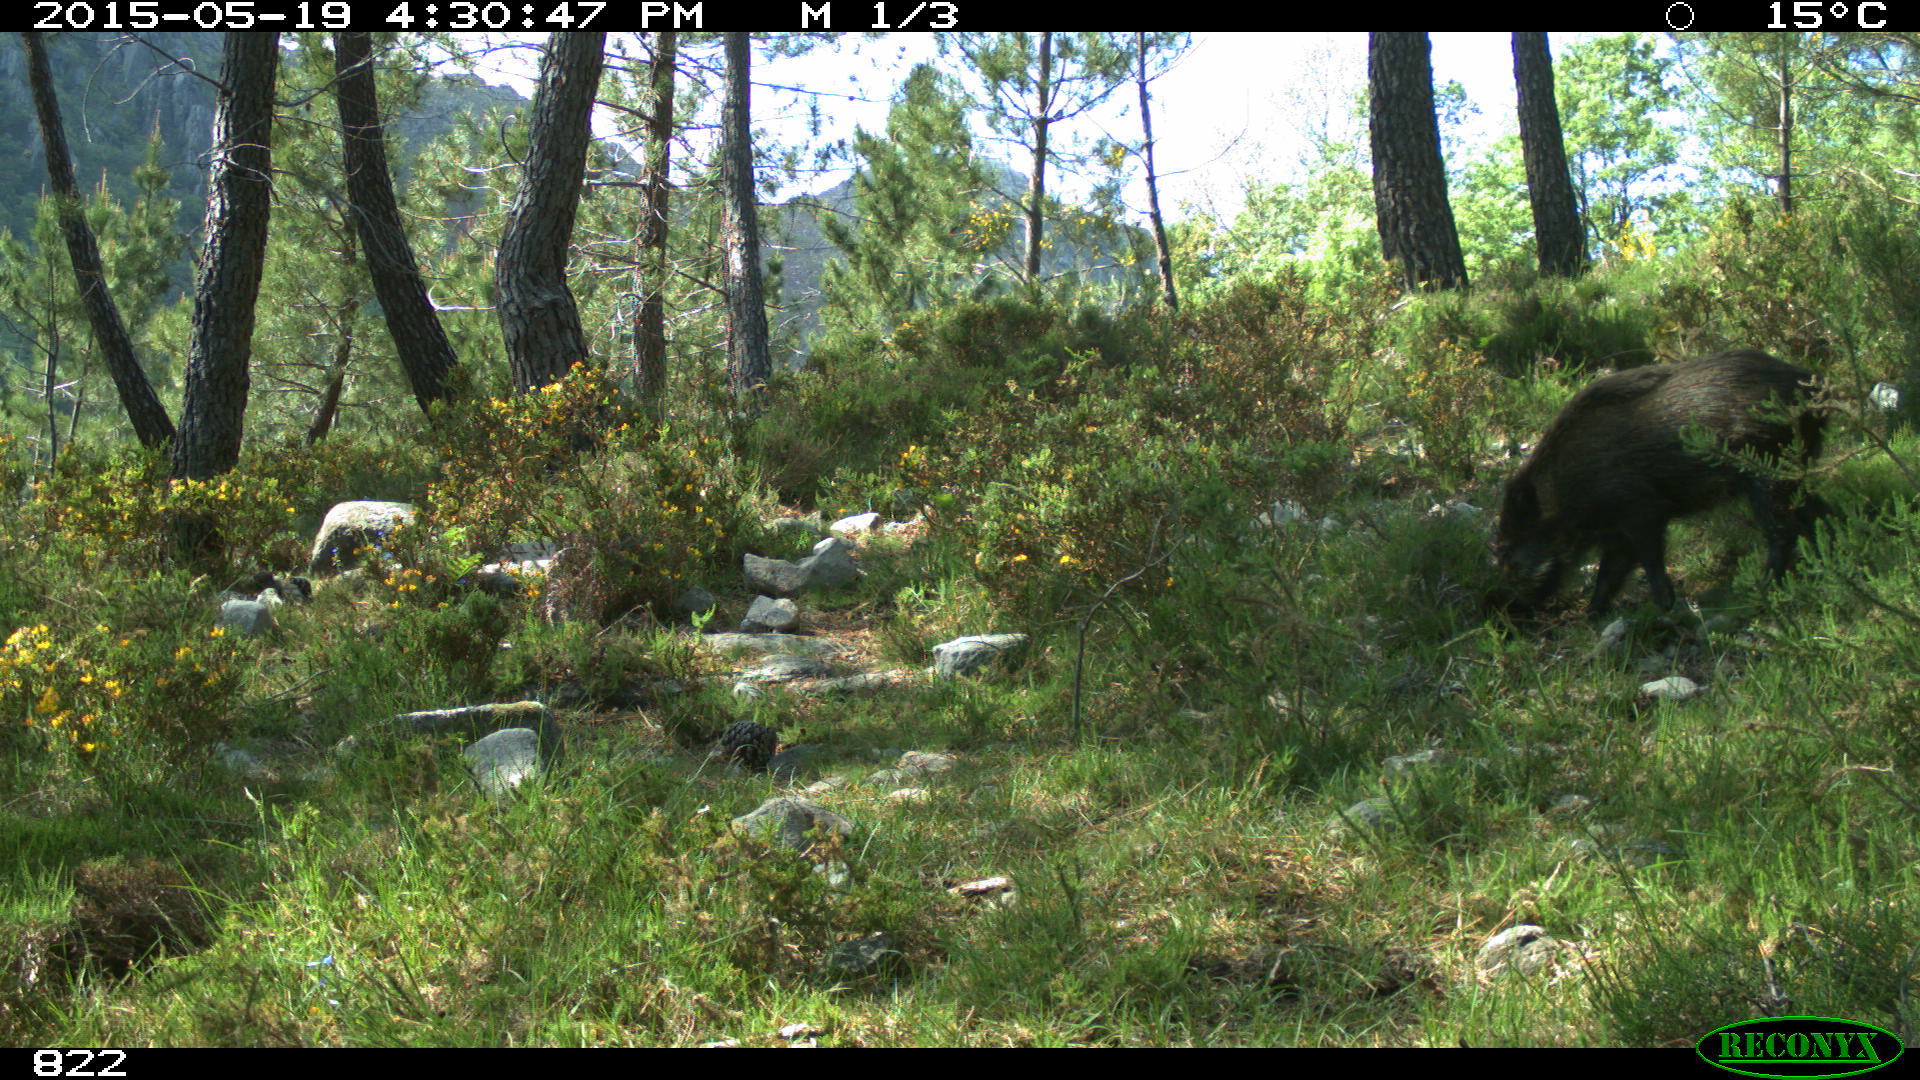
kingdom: Animalia
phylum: Chordata
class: Mammalia
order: Artiodactyla
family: Suidae
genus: Sus
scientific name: Sus scrofa
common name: Wild boar
